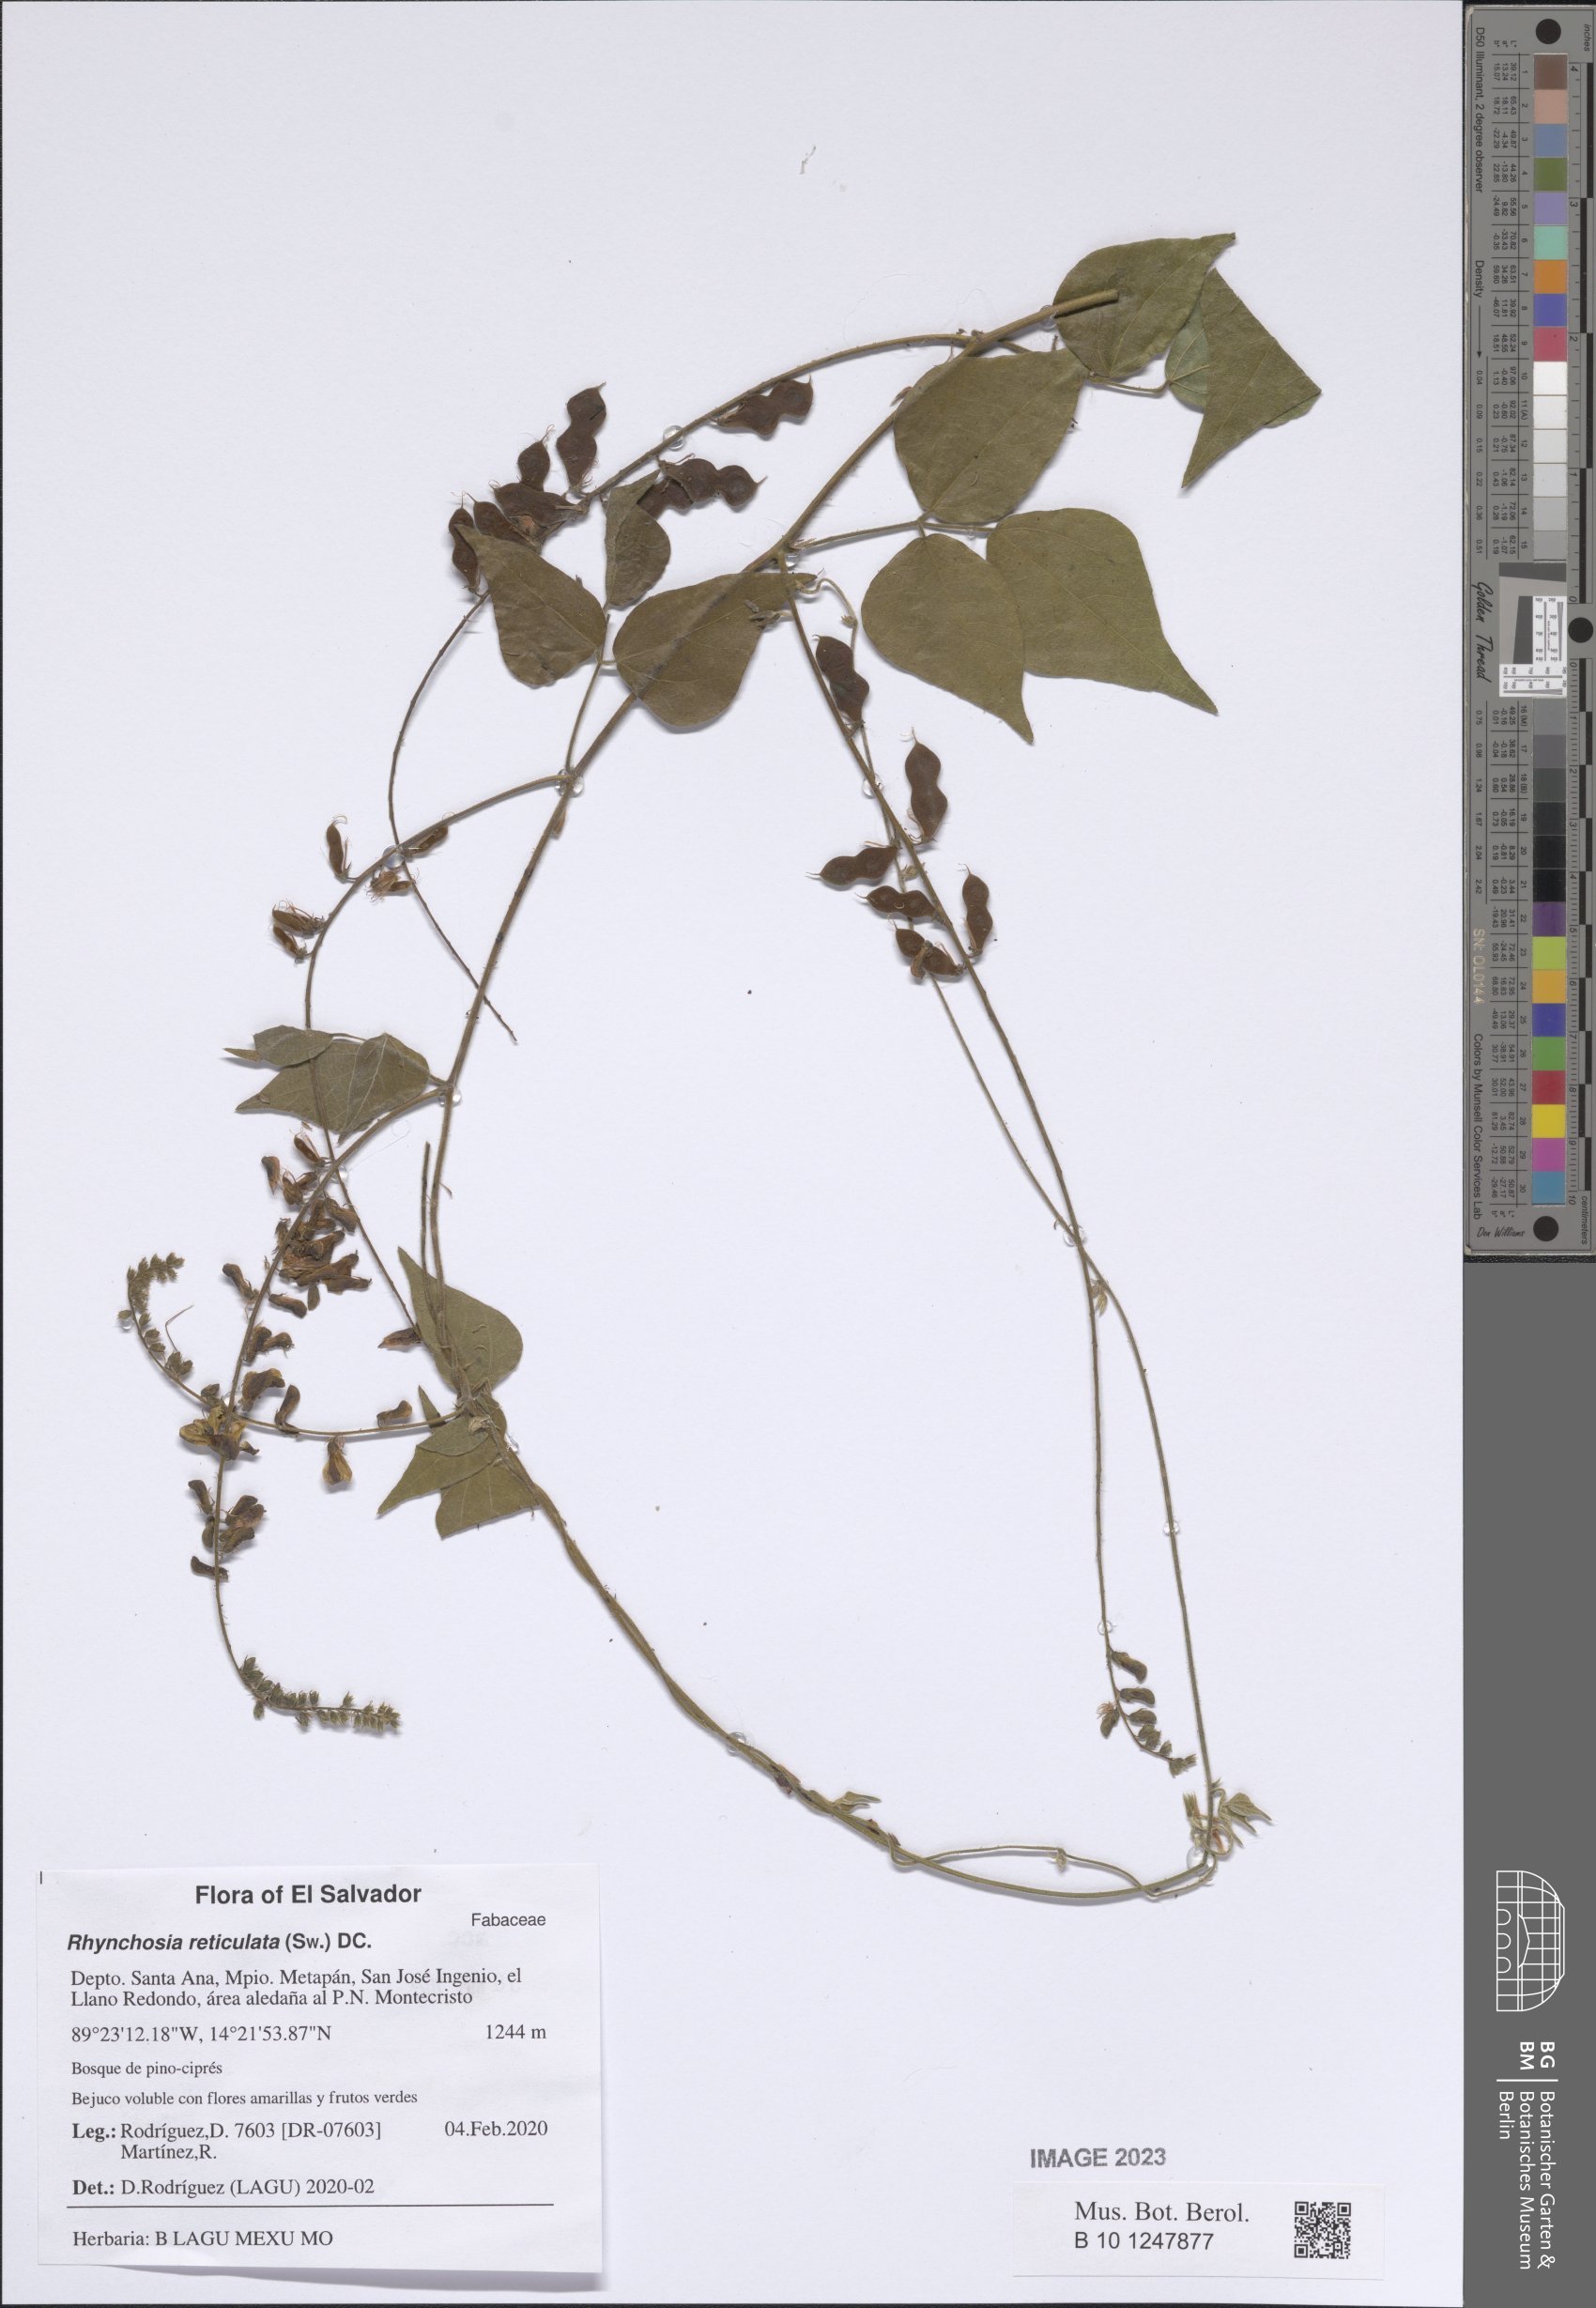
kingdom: Plantae
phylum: Tracheophyta
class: Magnoliopsida
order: Fabales
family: Fabaceae
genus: Rhynchosia
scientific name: Rhynchosia reticulata
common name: Pea withe
